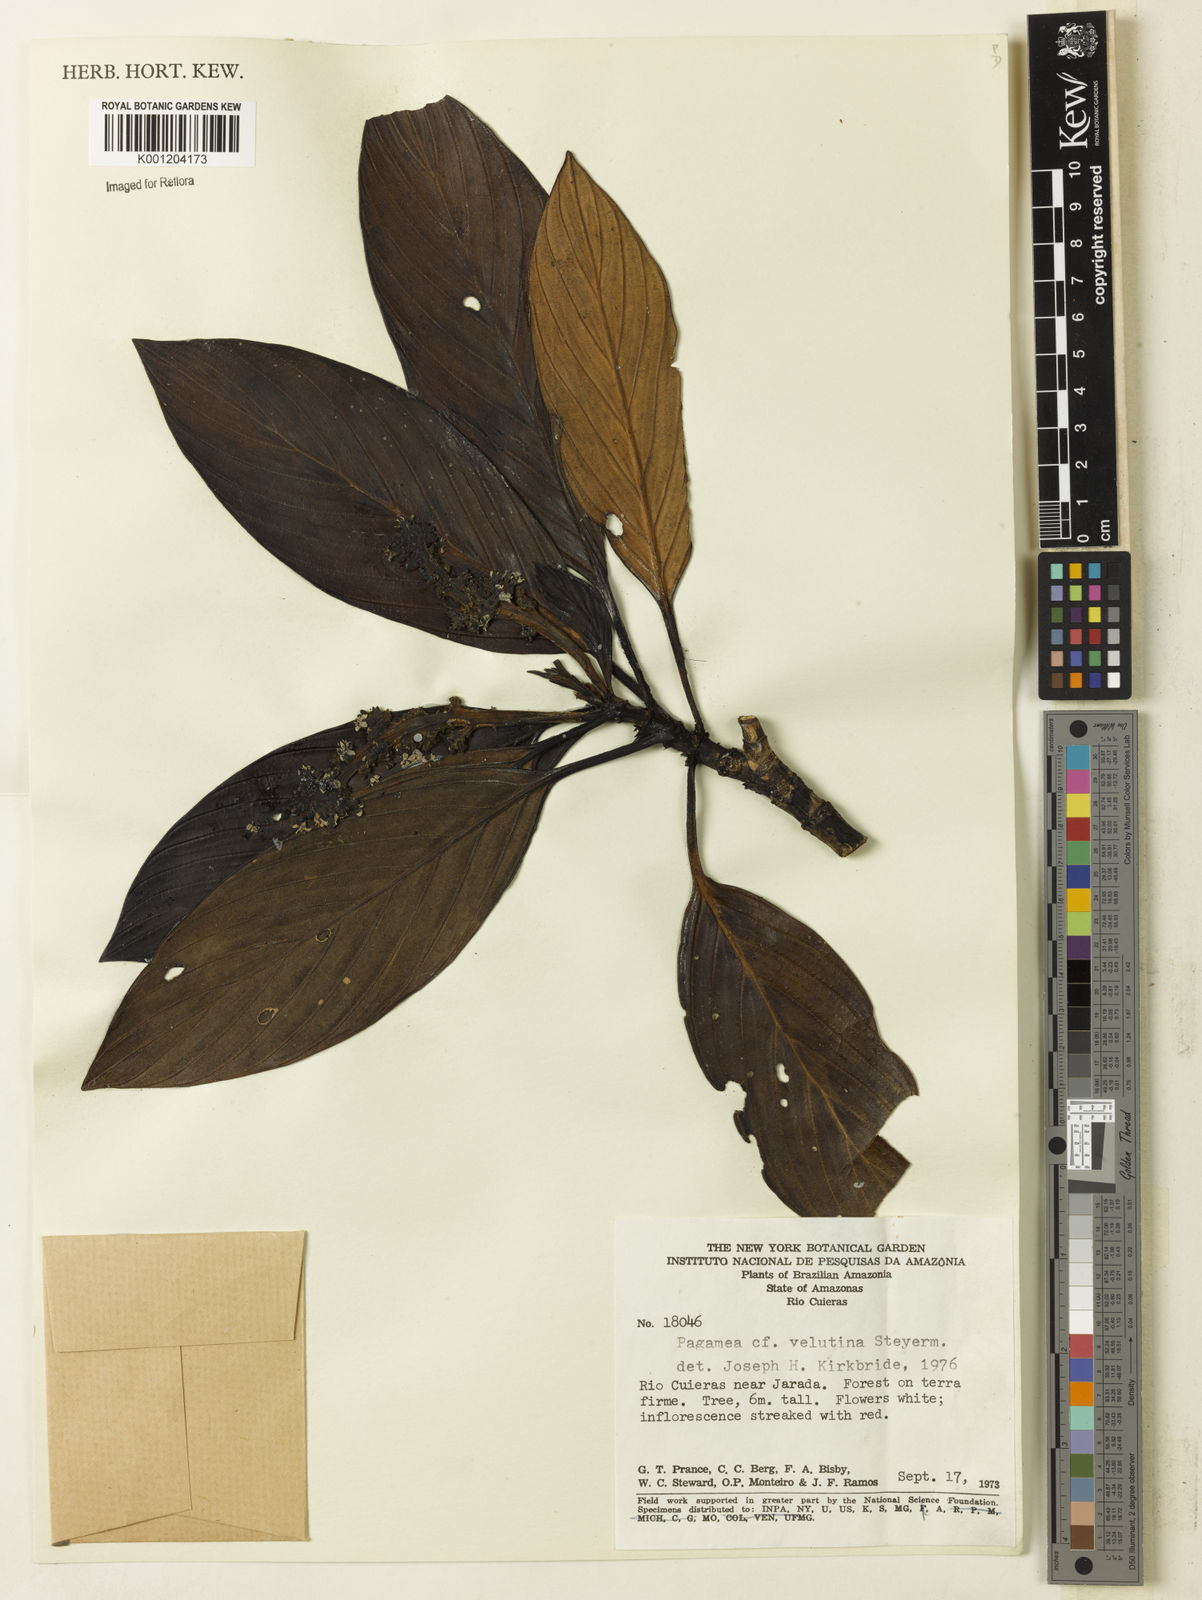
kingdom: Plantae
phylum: Tracheophyta
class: Magnoliopsida
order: Gentianales
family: Rubiaceae
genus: Pagamea
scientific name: Pagamea velutina
